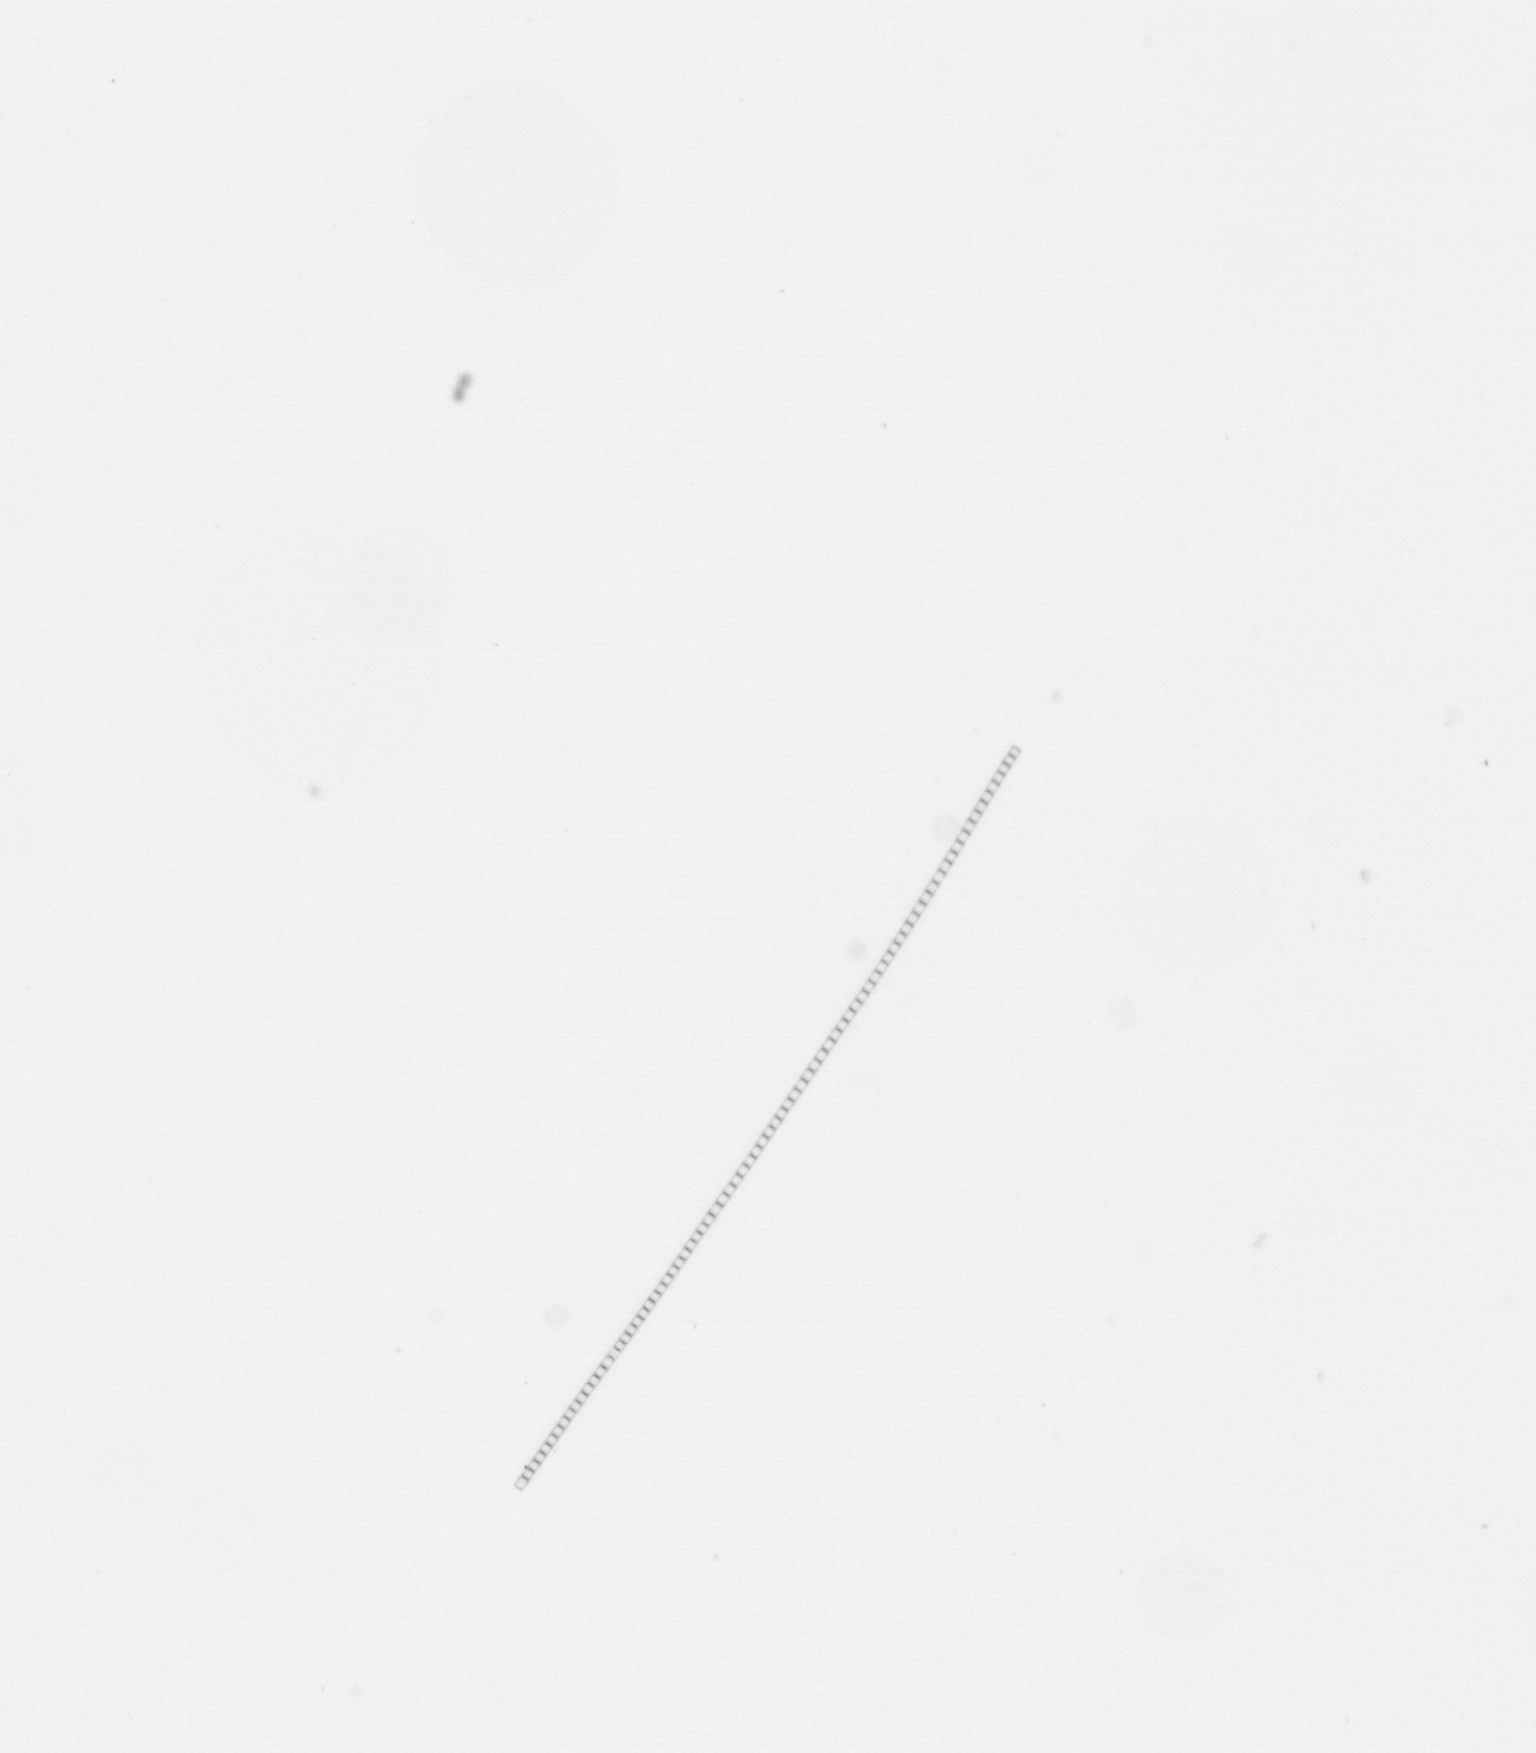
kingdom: Chromista
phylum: Ochrophyta
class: Bacillariophyceae
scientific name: Bacillariophyceae
